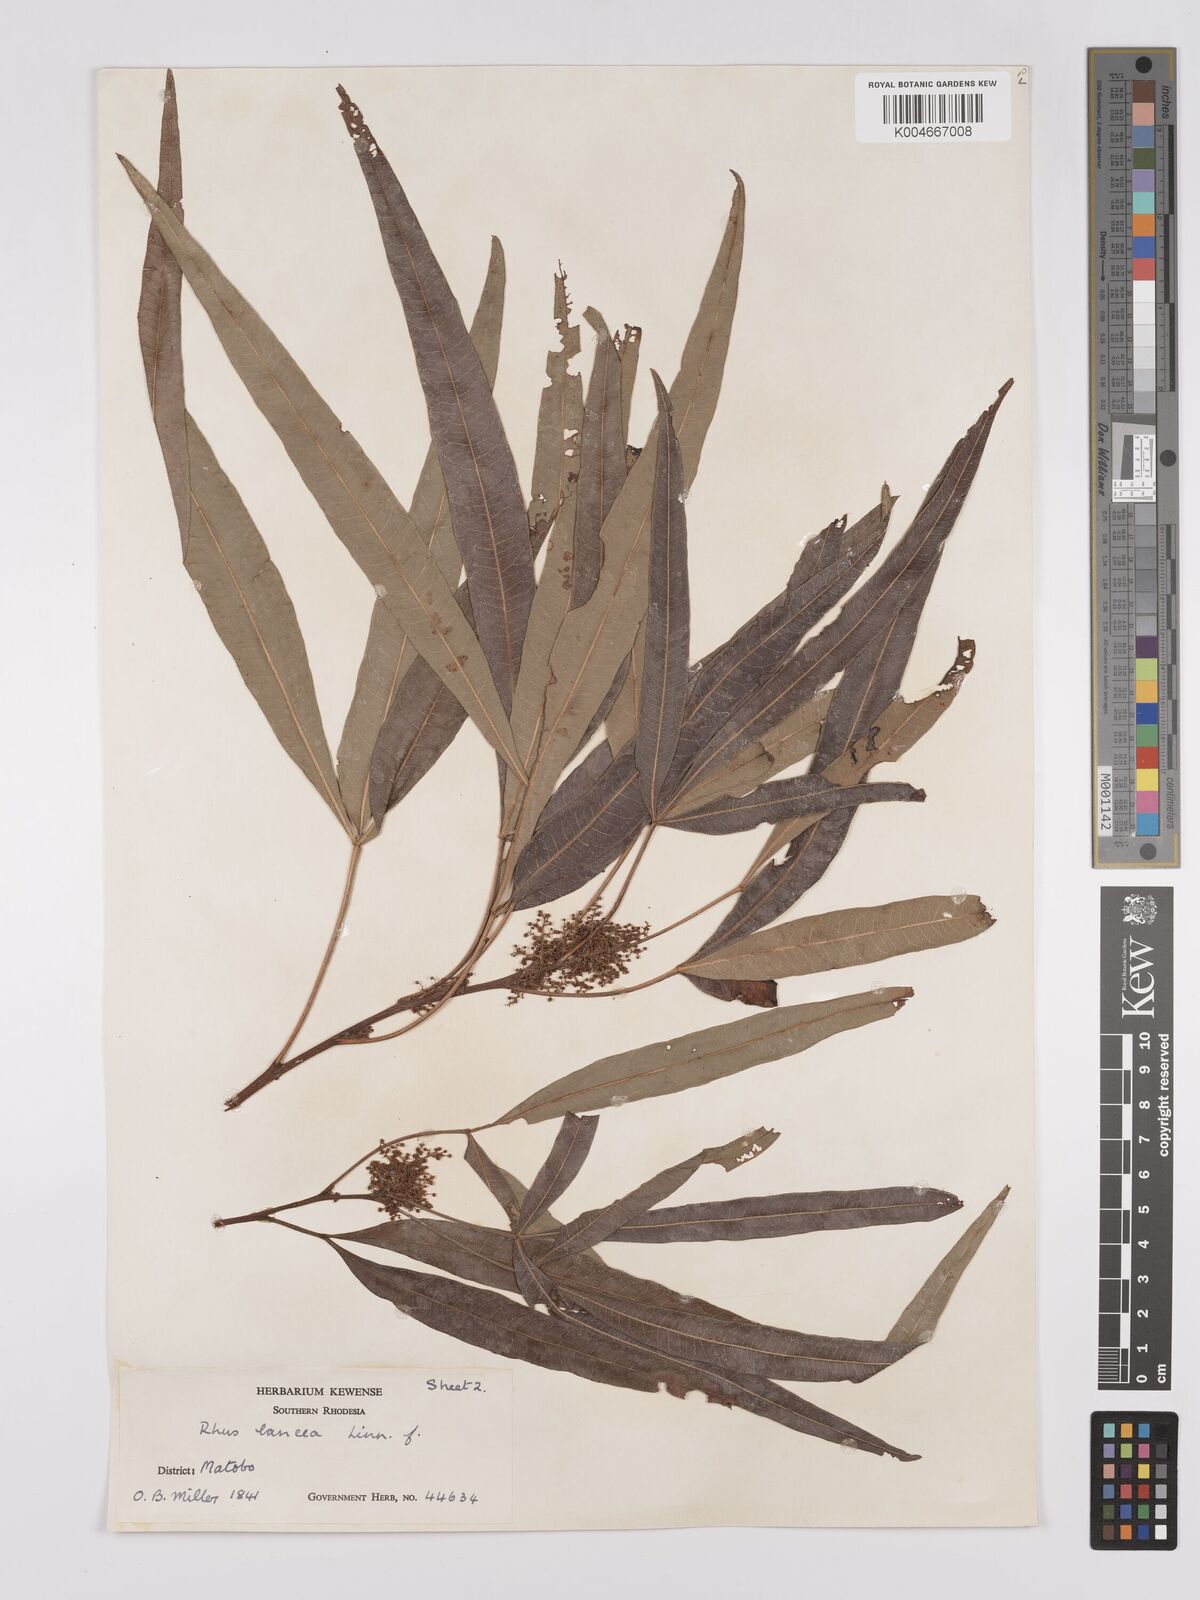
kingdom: Plantae
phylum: Tracheophyta
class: Magnoliopsida
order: Sapindales
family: Anacardiaceae
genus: Searsia
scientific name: Searsia lancea
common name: Cashew
